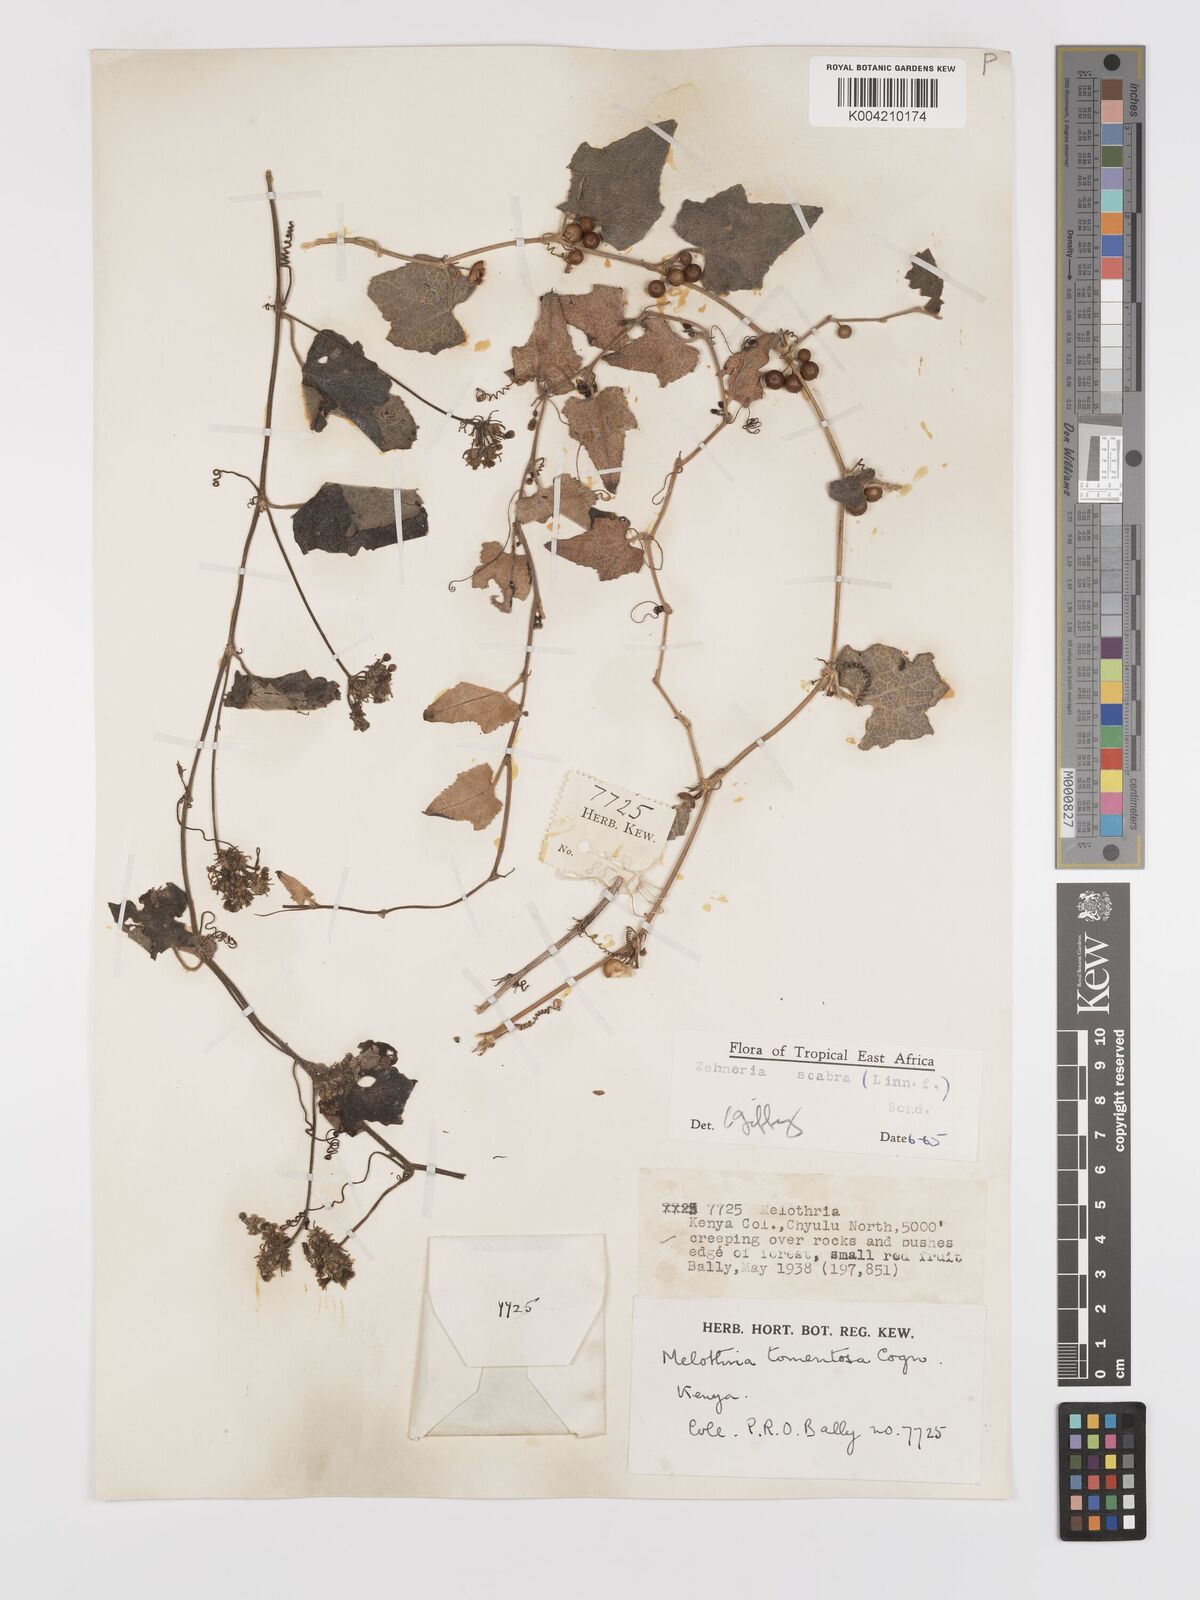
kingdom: Plantae
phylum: Tracheophyta
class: Magnoliopsida
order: Cucurbitales
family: Cucurbitaceae
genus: Zehneria
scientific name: Zehneria scabra
